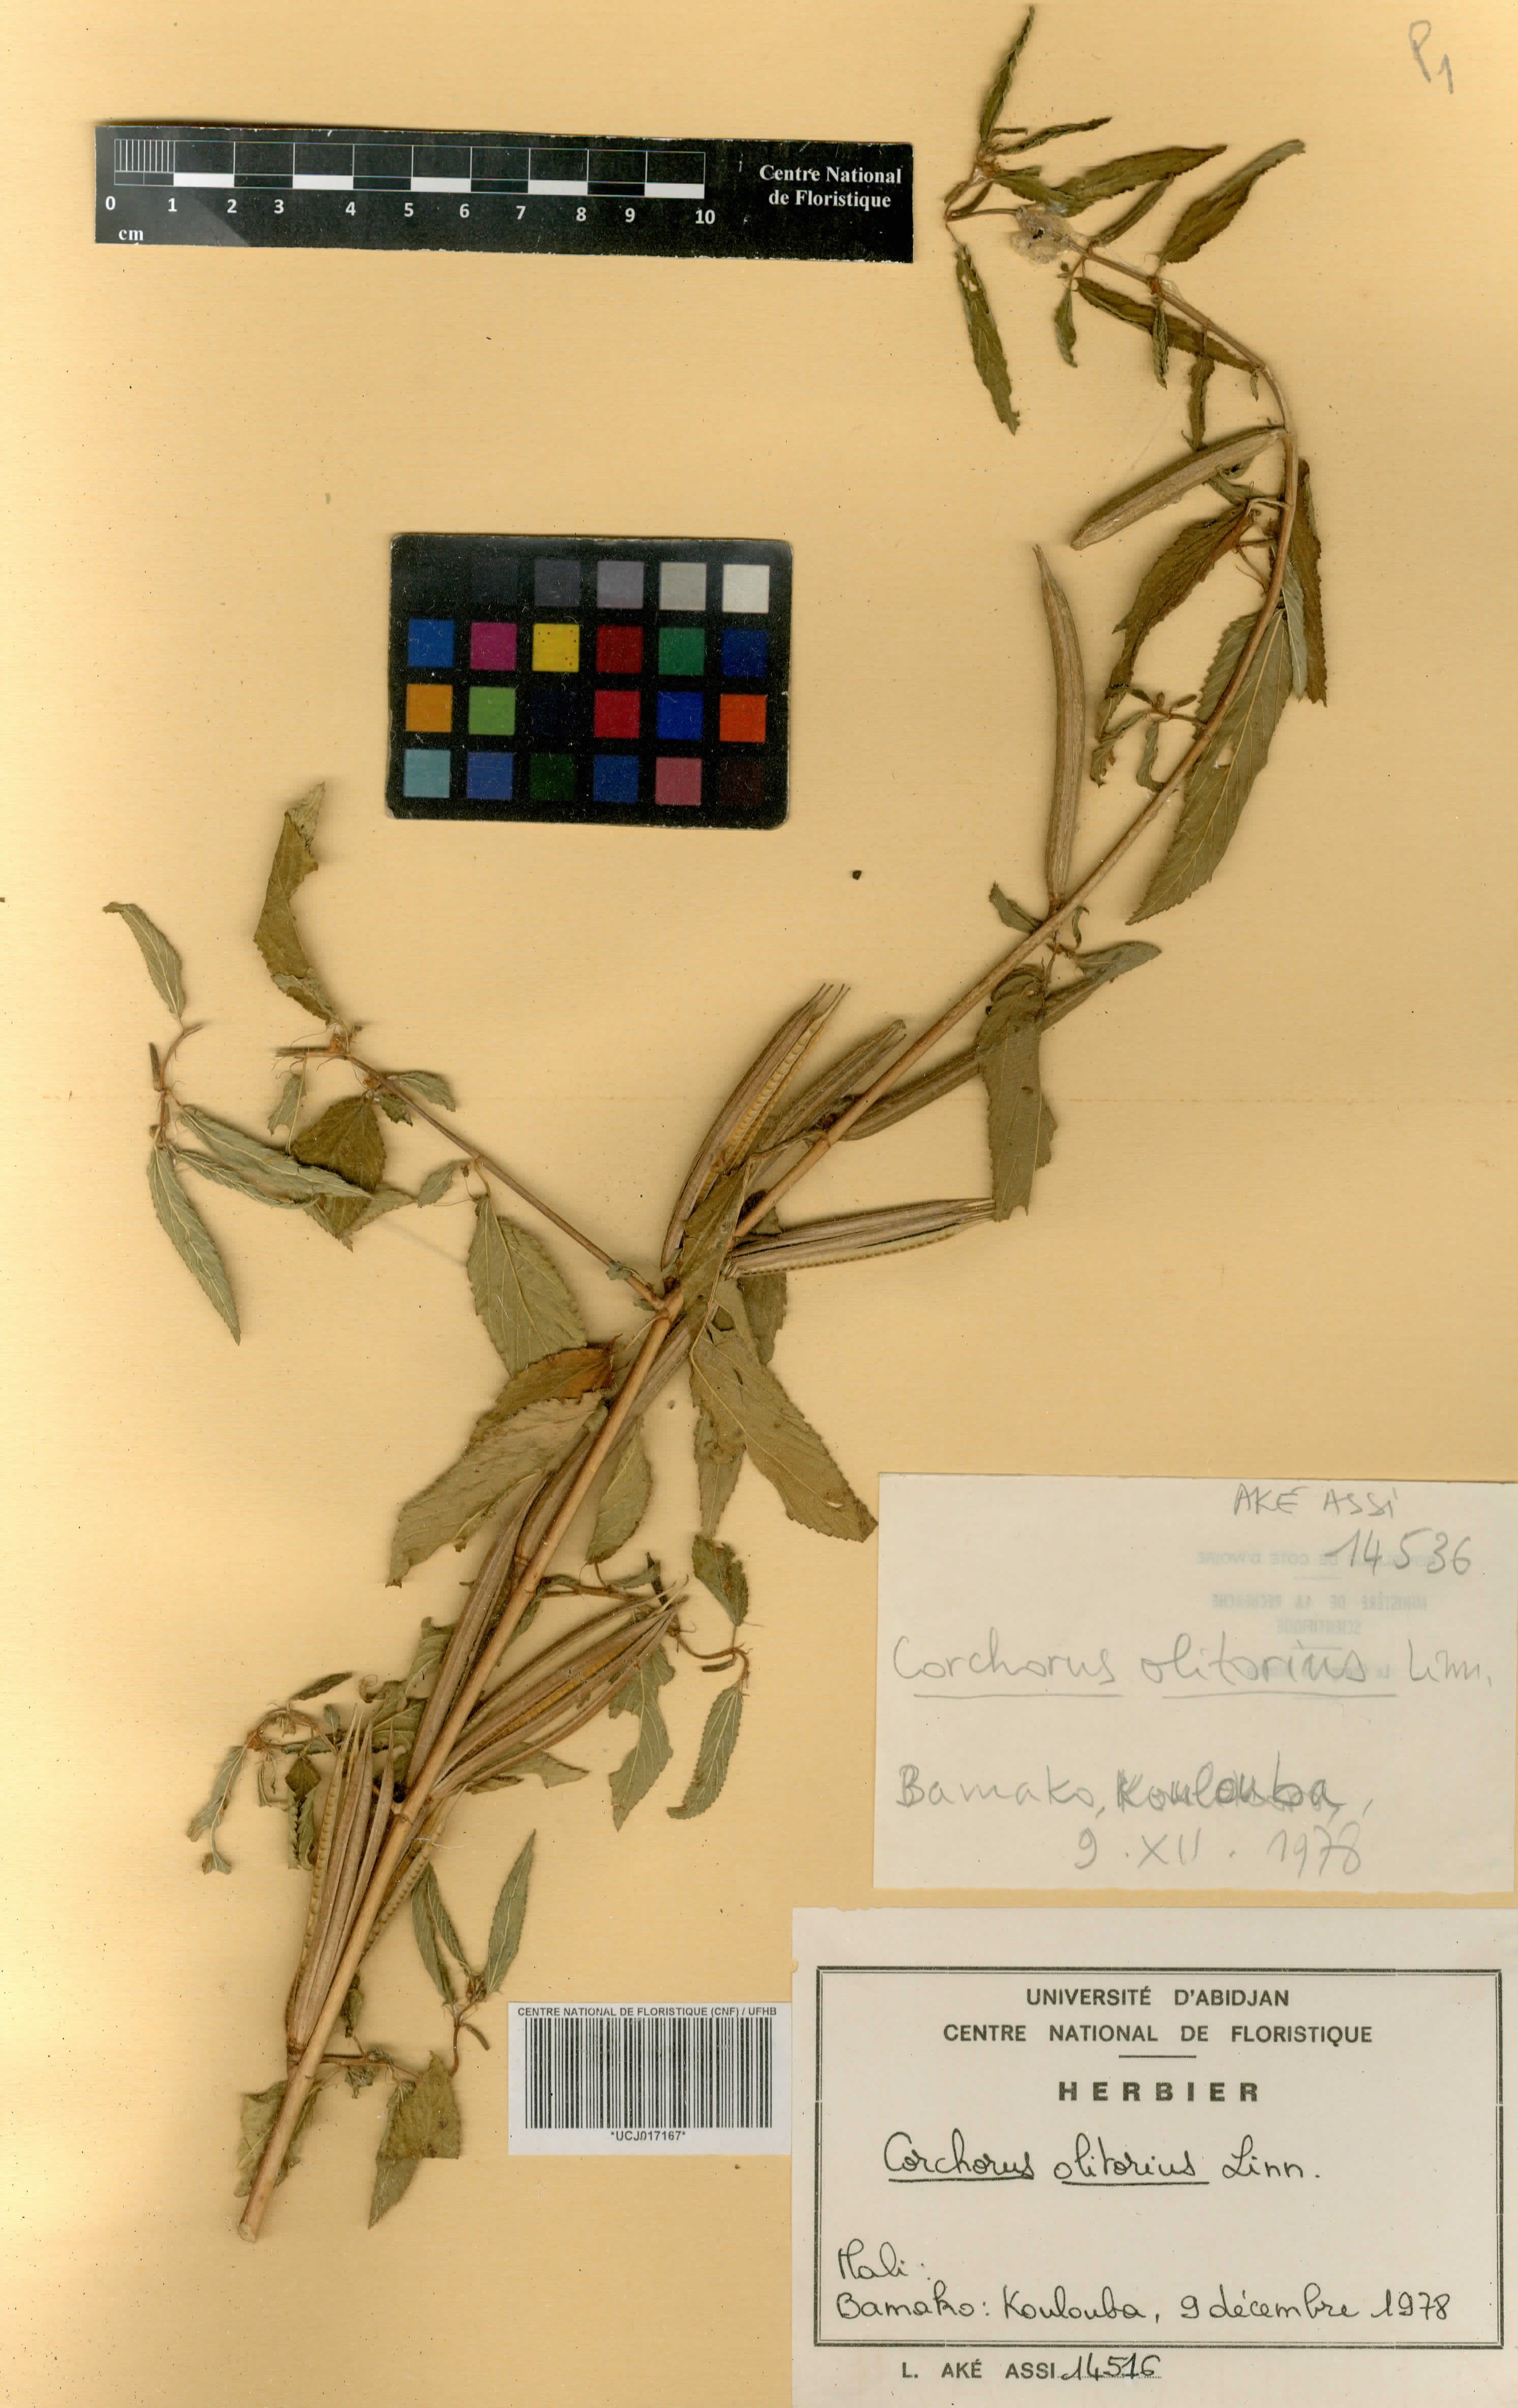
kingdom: Plantae
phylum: Tracheophyta
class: Magnoliopsida
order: Malvales
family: Malvaceae
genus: Corchorus
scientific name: Corchorus olitorius
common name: Tossa jute
